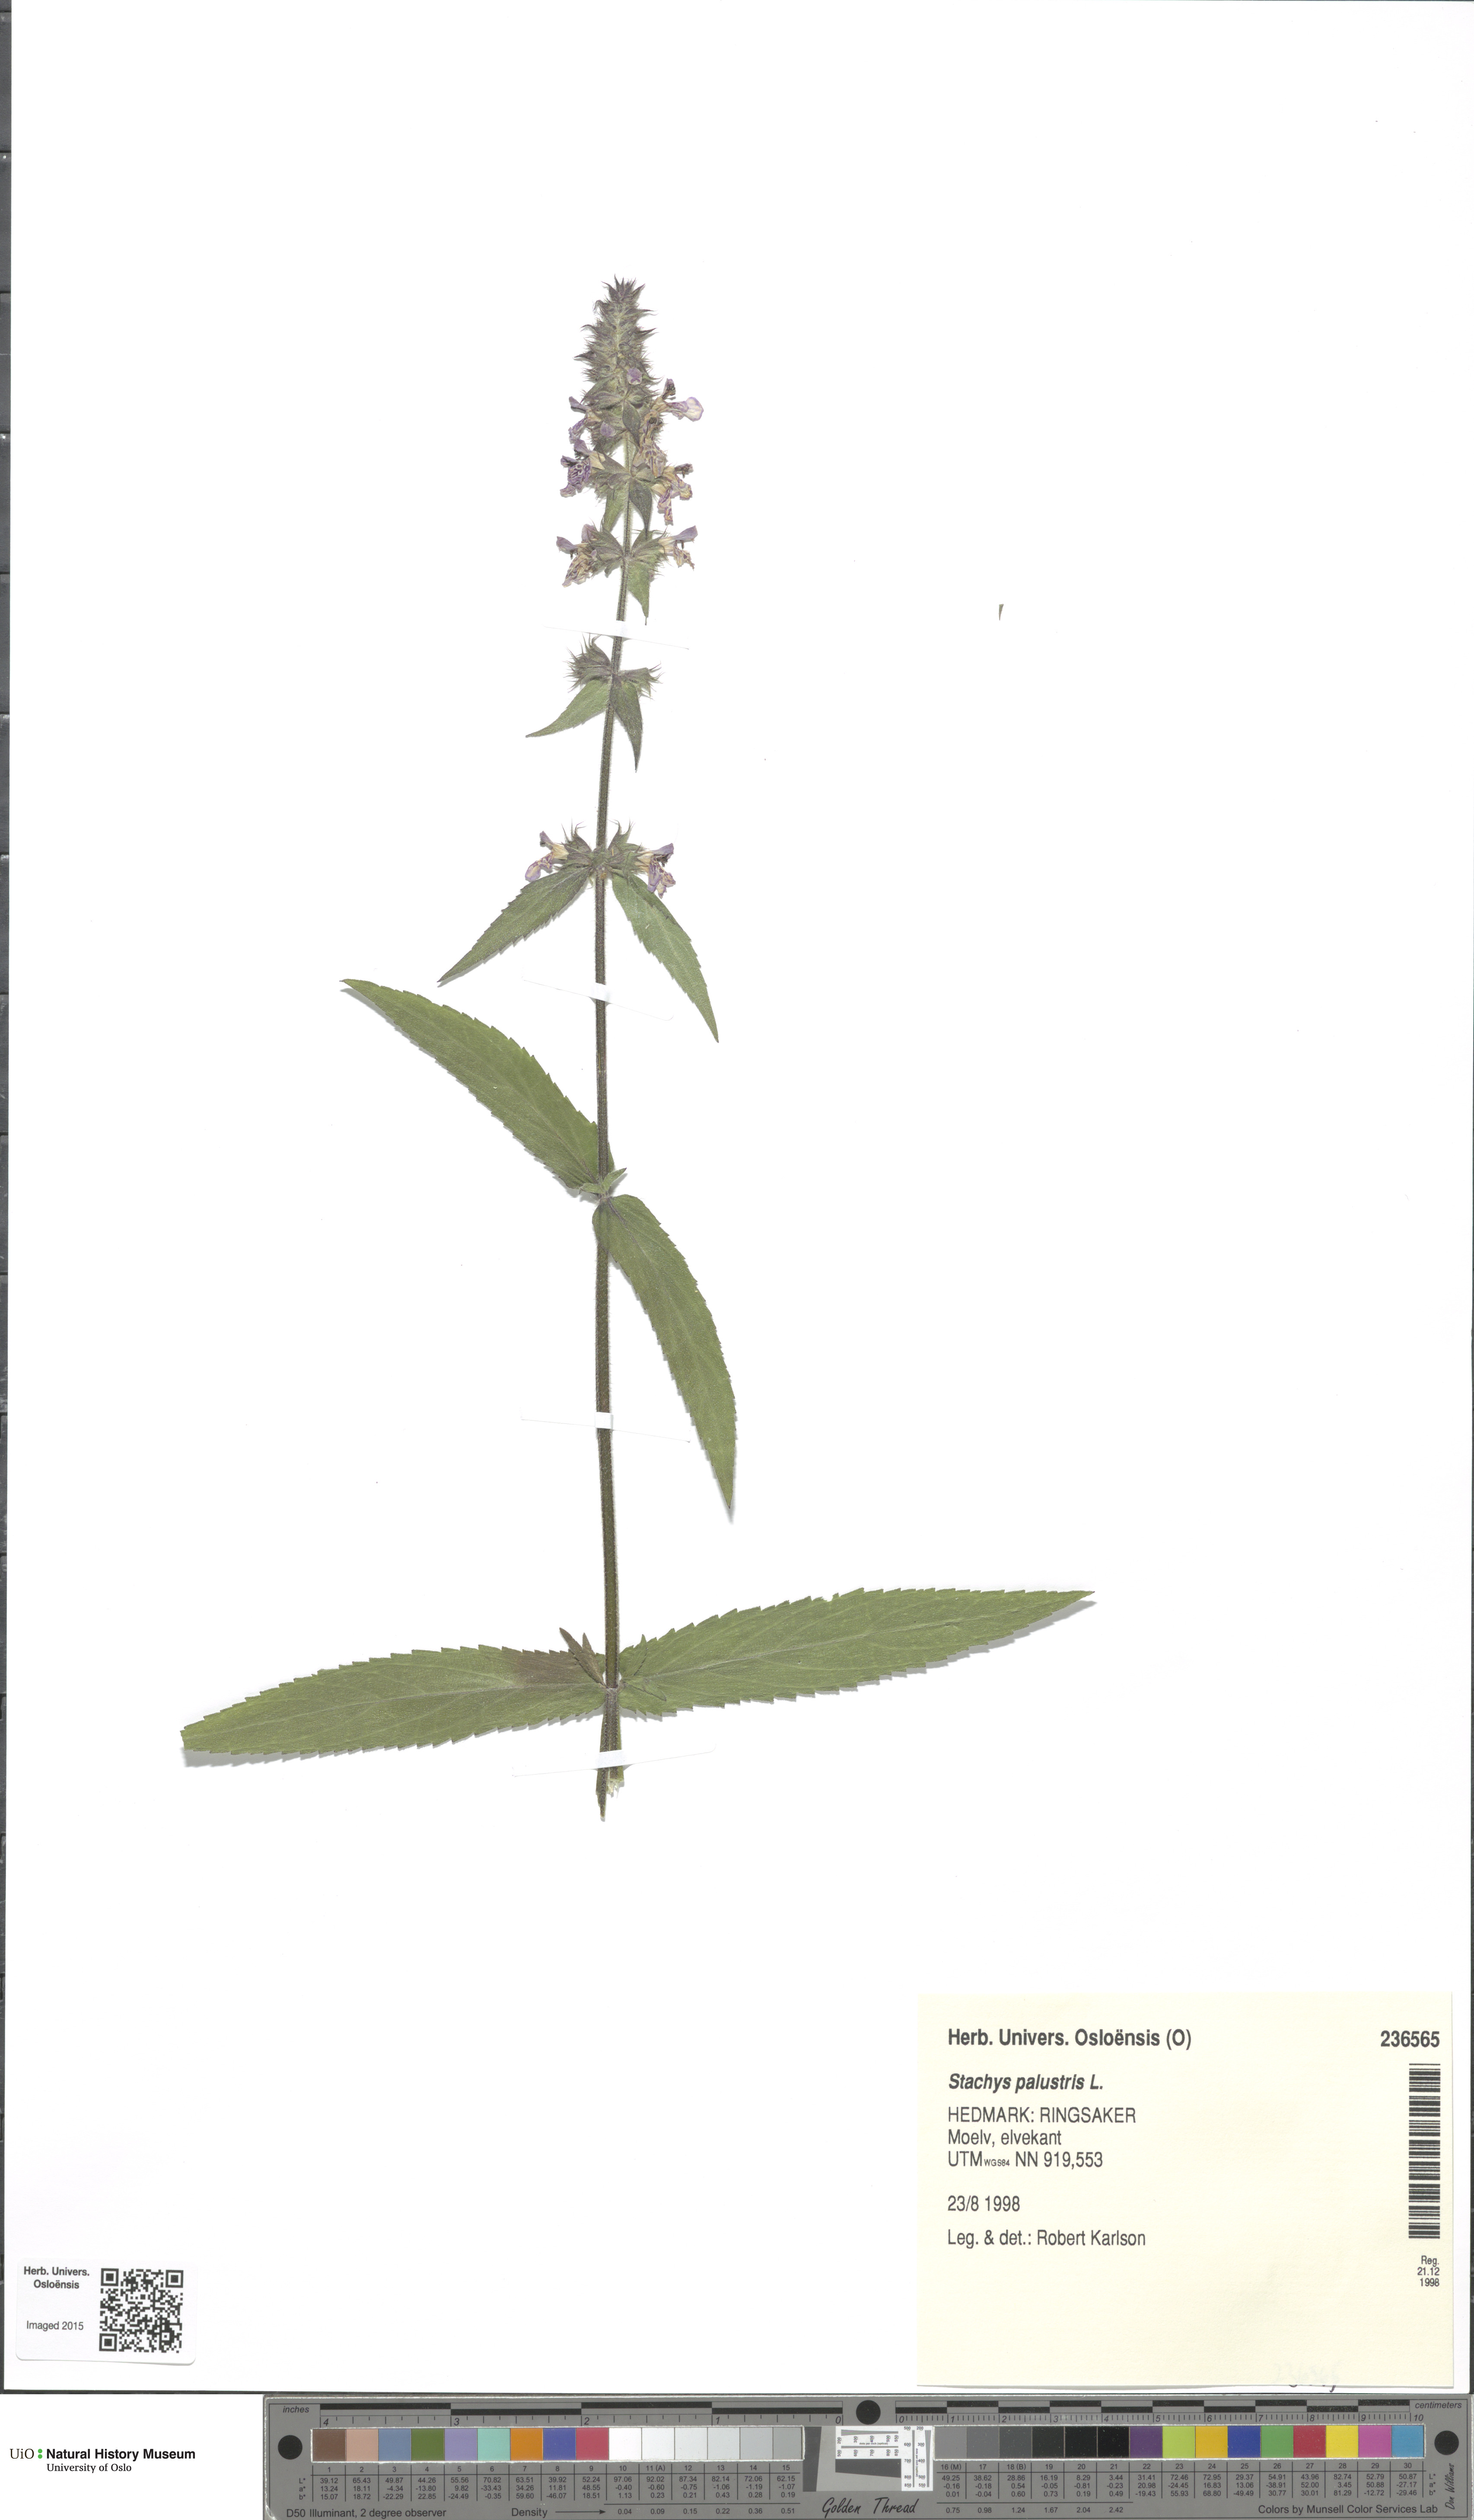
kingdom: Plantae
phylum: Tracheophyta
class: Magnoliopsida
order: Lamiales
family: Lamiaceae
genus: Stachys
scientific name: Stachys palustris
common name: Marsh woundwort
